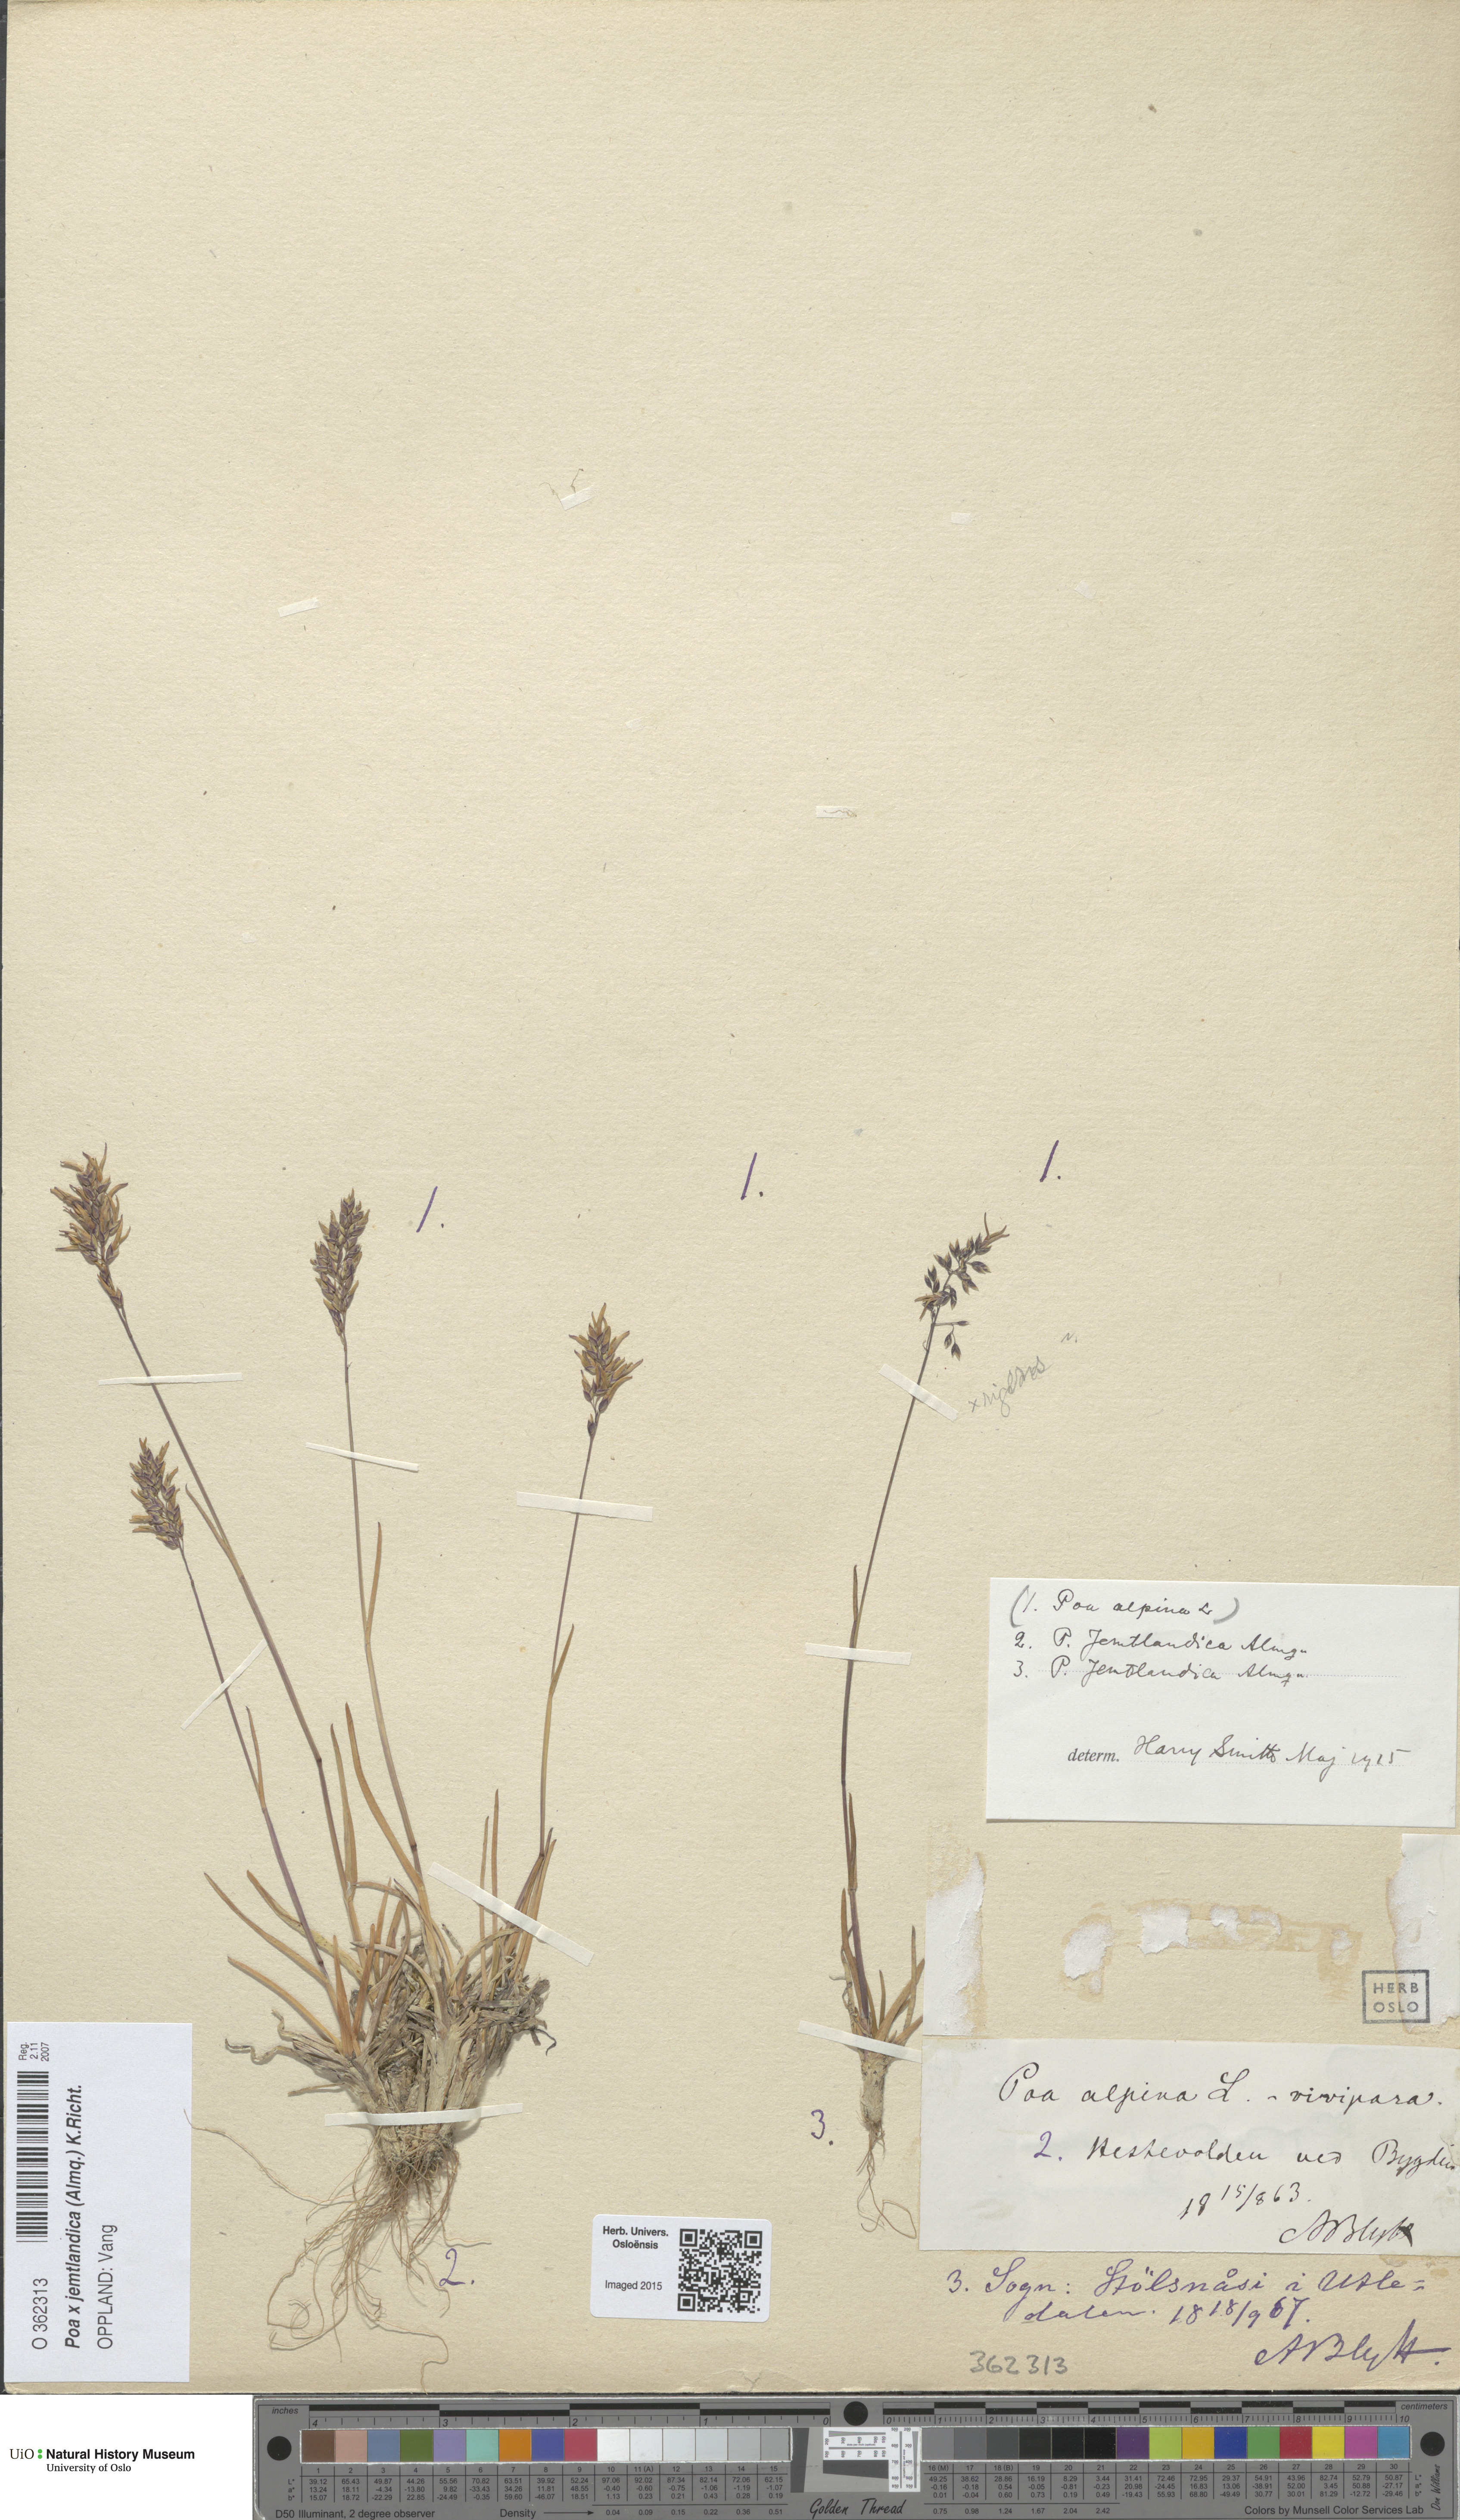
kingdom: Plantae
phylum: Tracheophyta
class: Liliopsida
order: Poales
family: Poaceae
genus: Poa
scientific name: Poa jemtlandica
